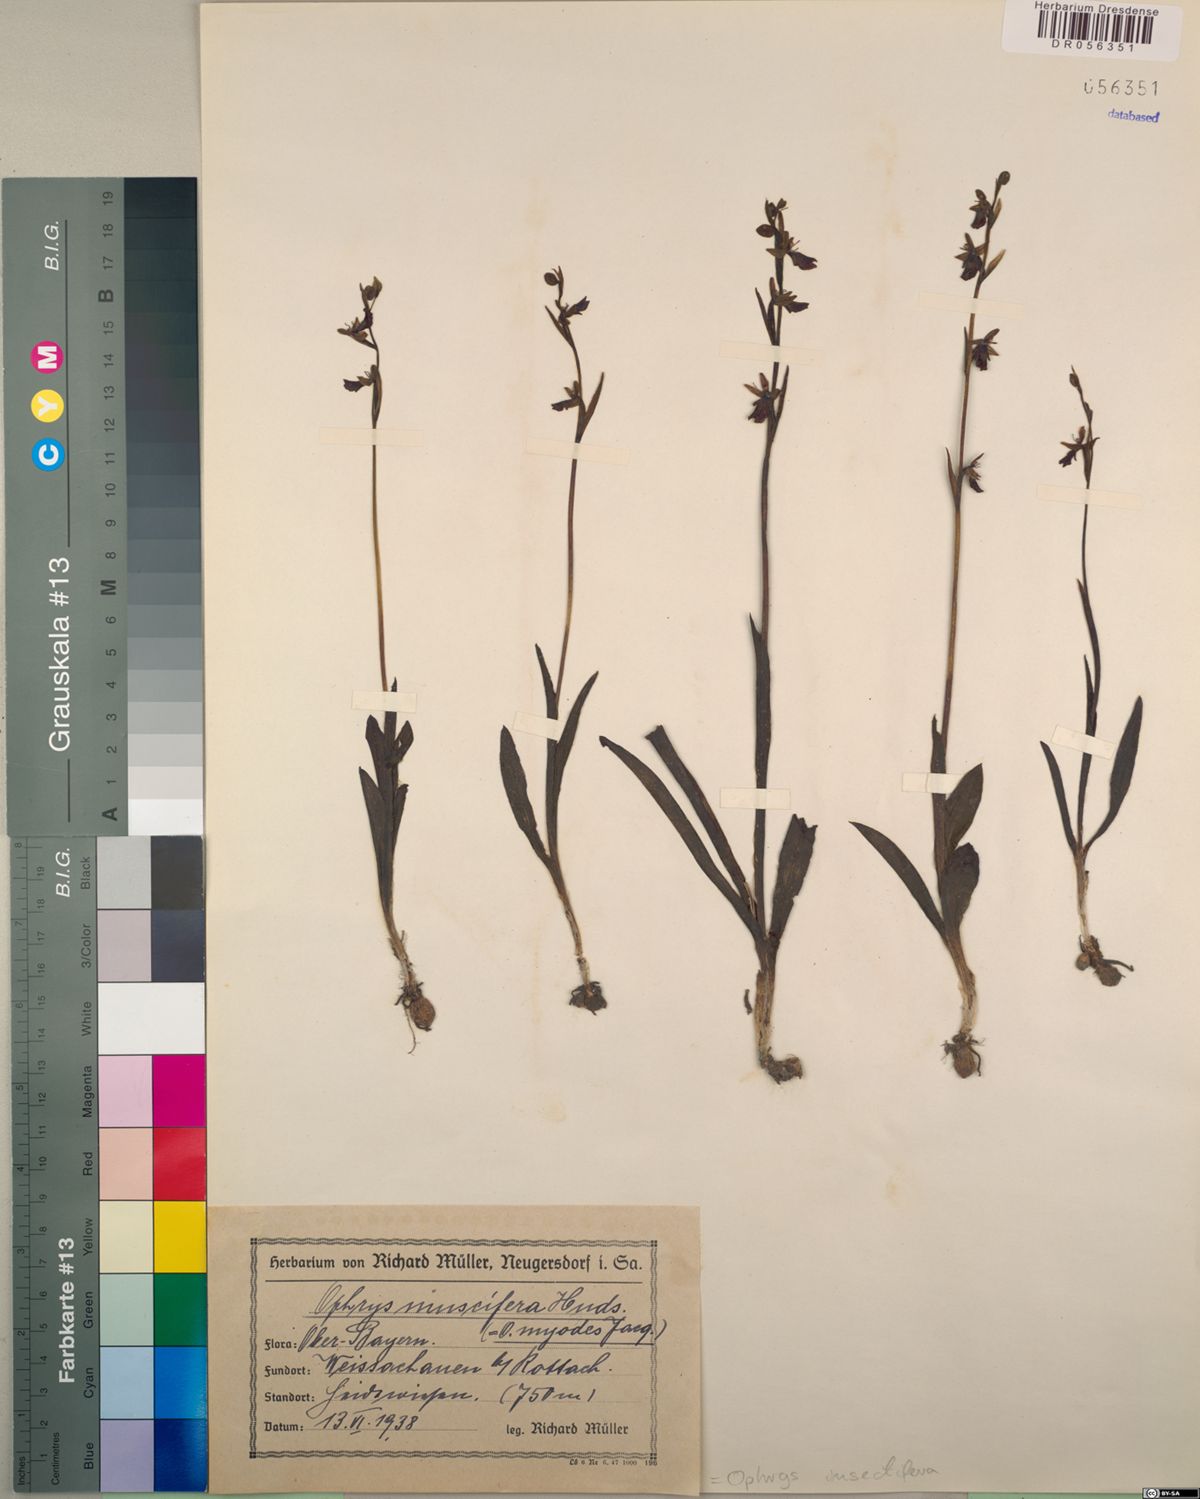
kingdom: Plantae
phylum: Tracheophyta
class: Liliopsida
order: Asparagales
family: Orchidaceae
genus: Ophrys
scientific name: Ophrys insectifera
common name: Fly orchid
